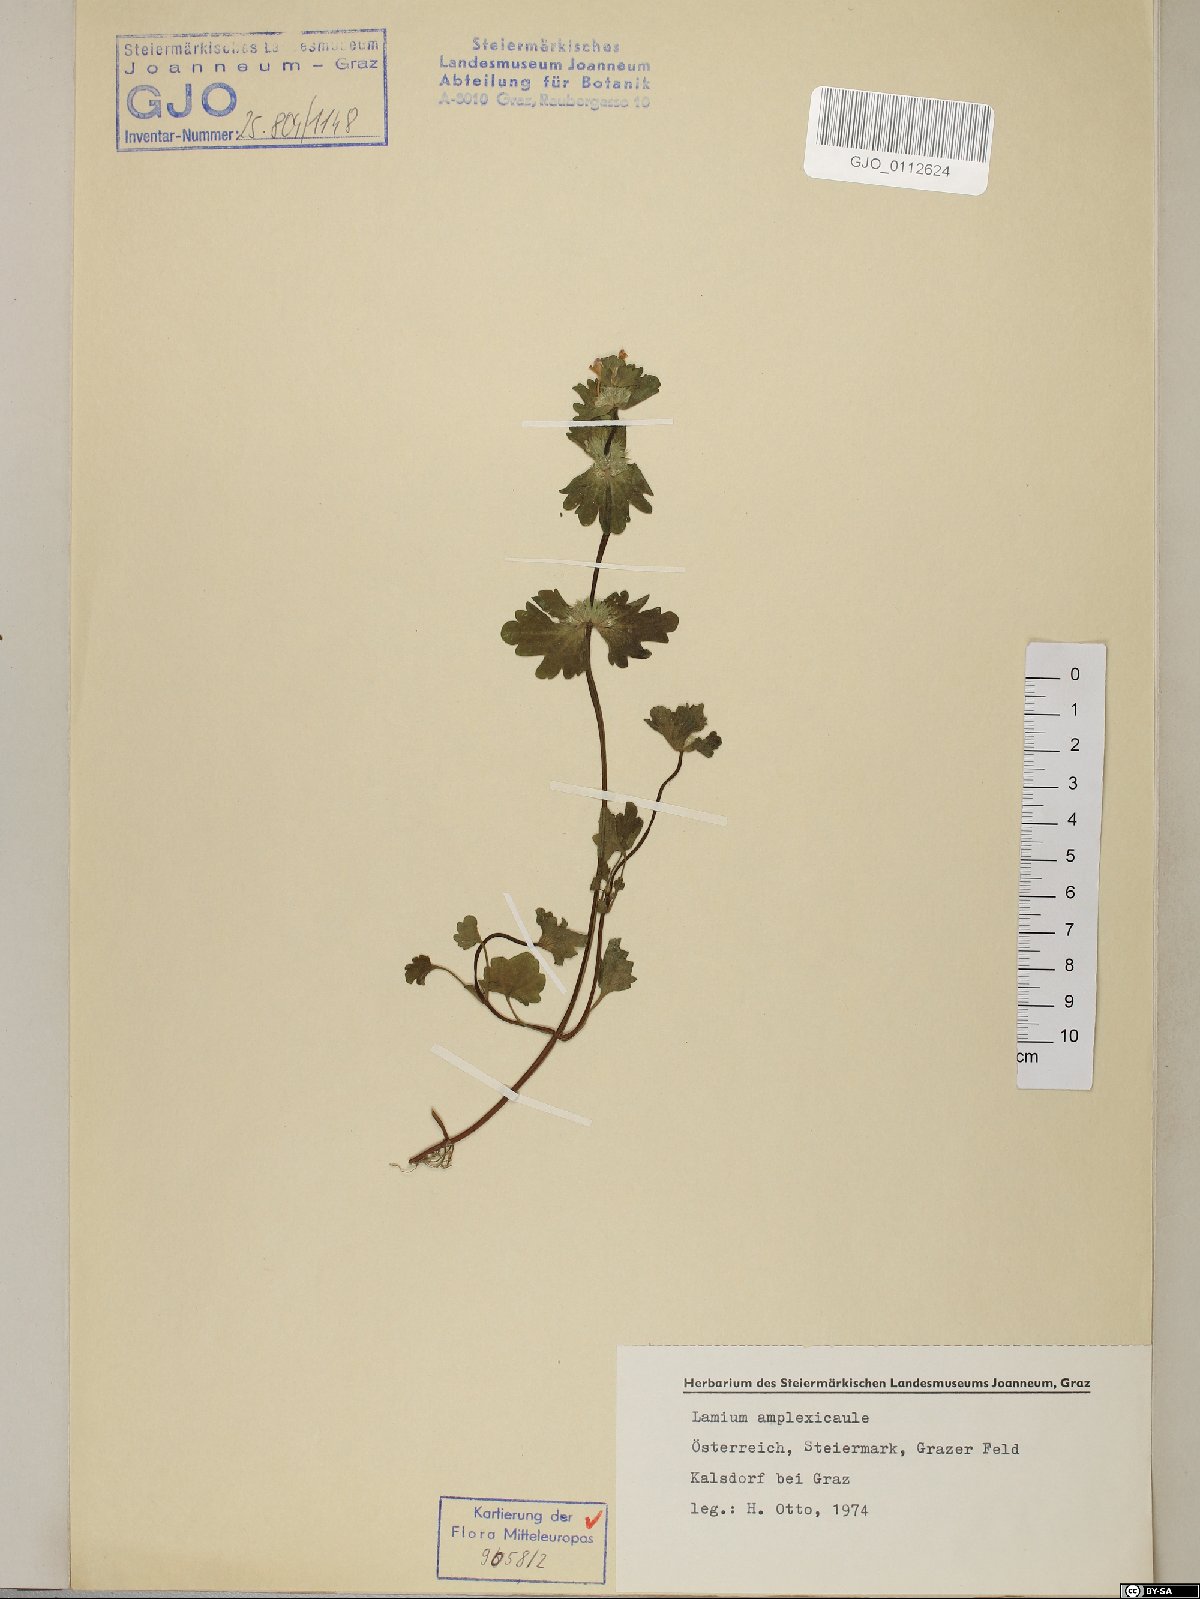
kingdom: Plantae
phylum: Tracheophyta
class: Magnoliopsida
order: Lamiales
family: Lamiaceae
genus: Lamium
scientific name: Lamium amplexicaule
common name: Henbit dead-nettle
